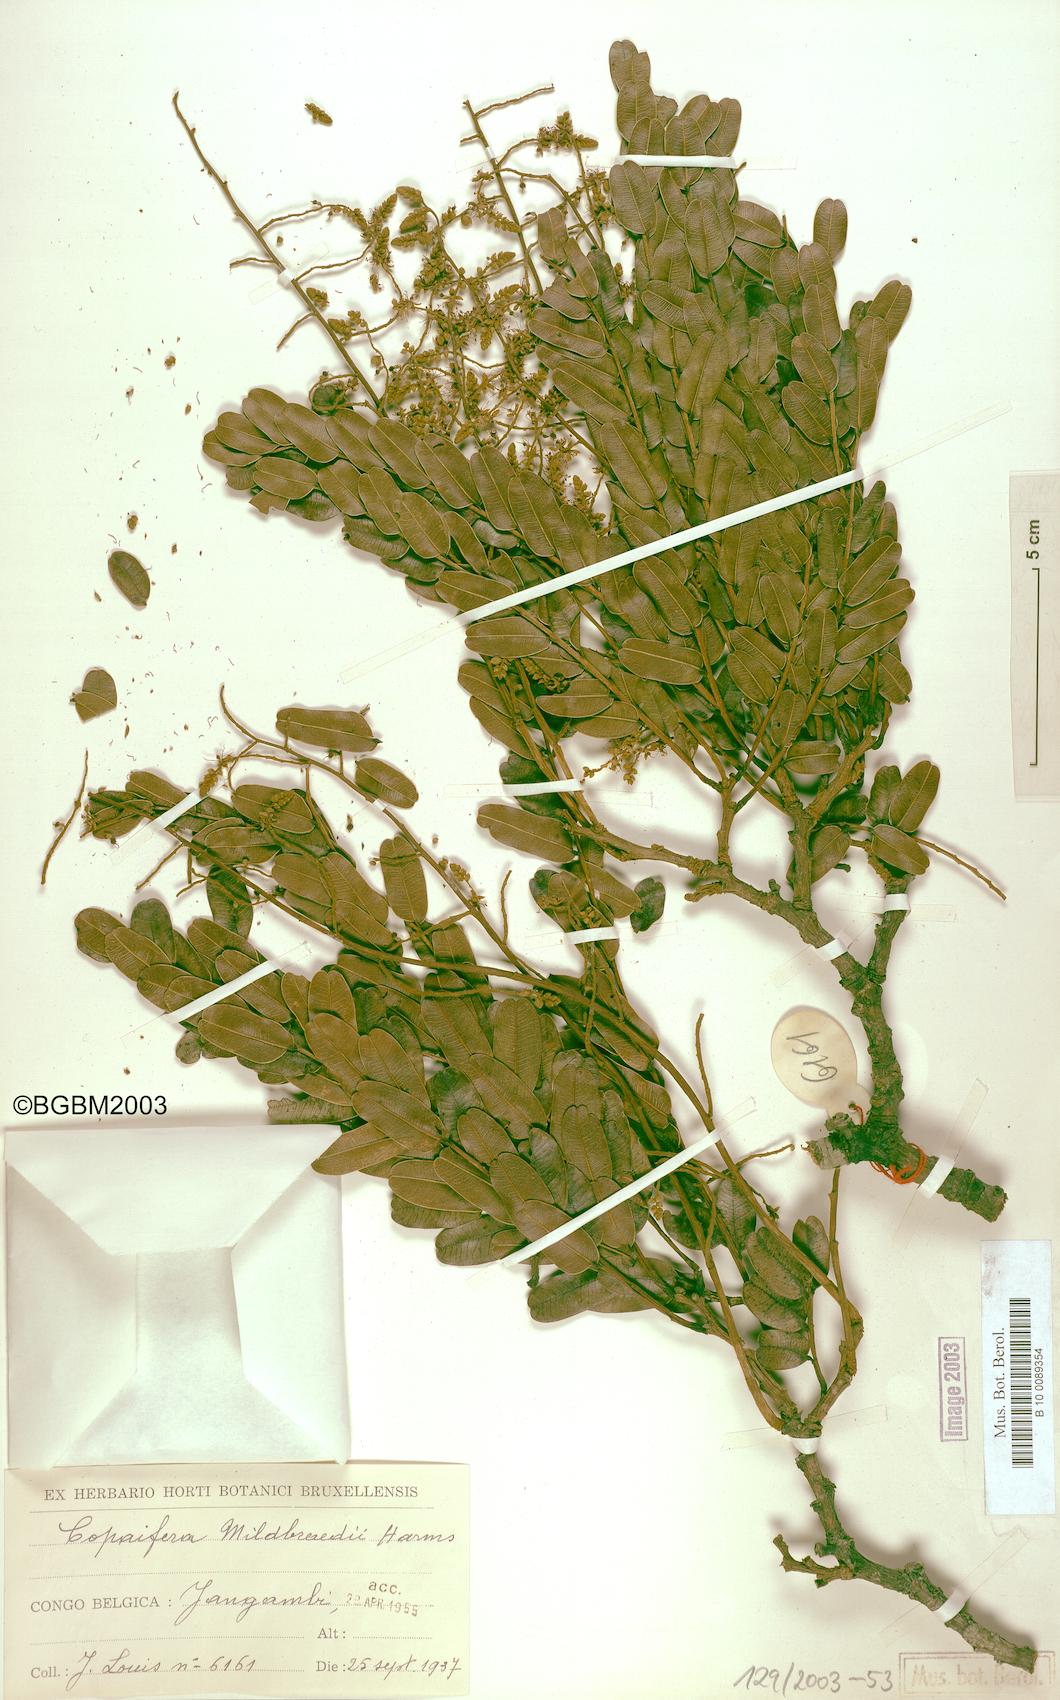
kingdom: Plantae
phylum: Tracheophyta
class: Magnoliopsida
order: Fabales
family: Fabaceae
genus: Copaifera
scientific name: Copaifera mildbraedii
